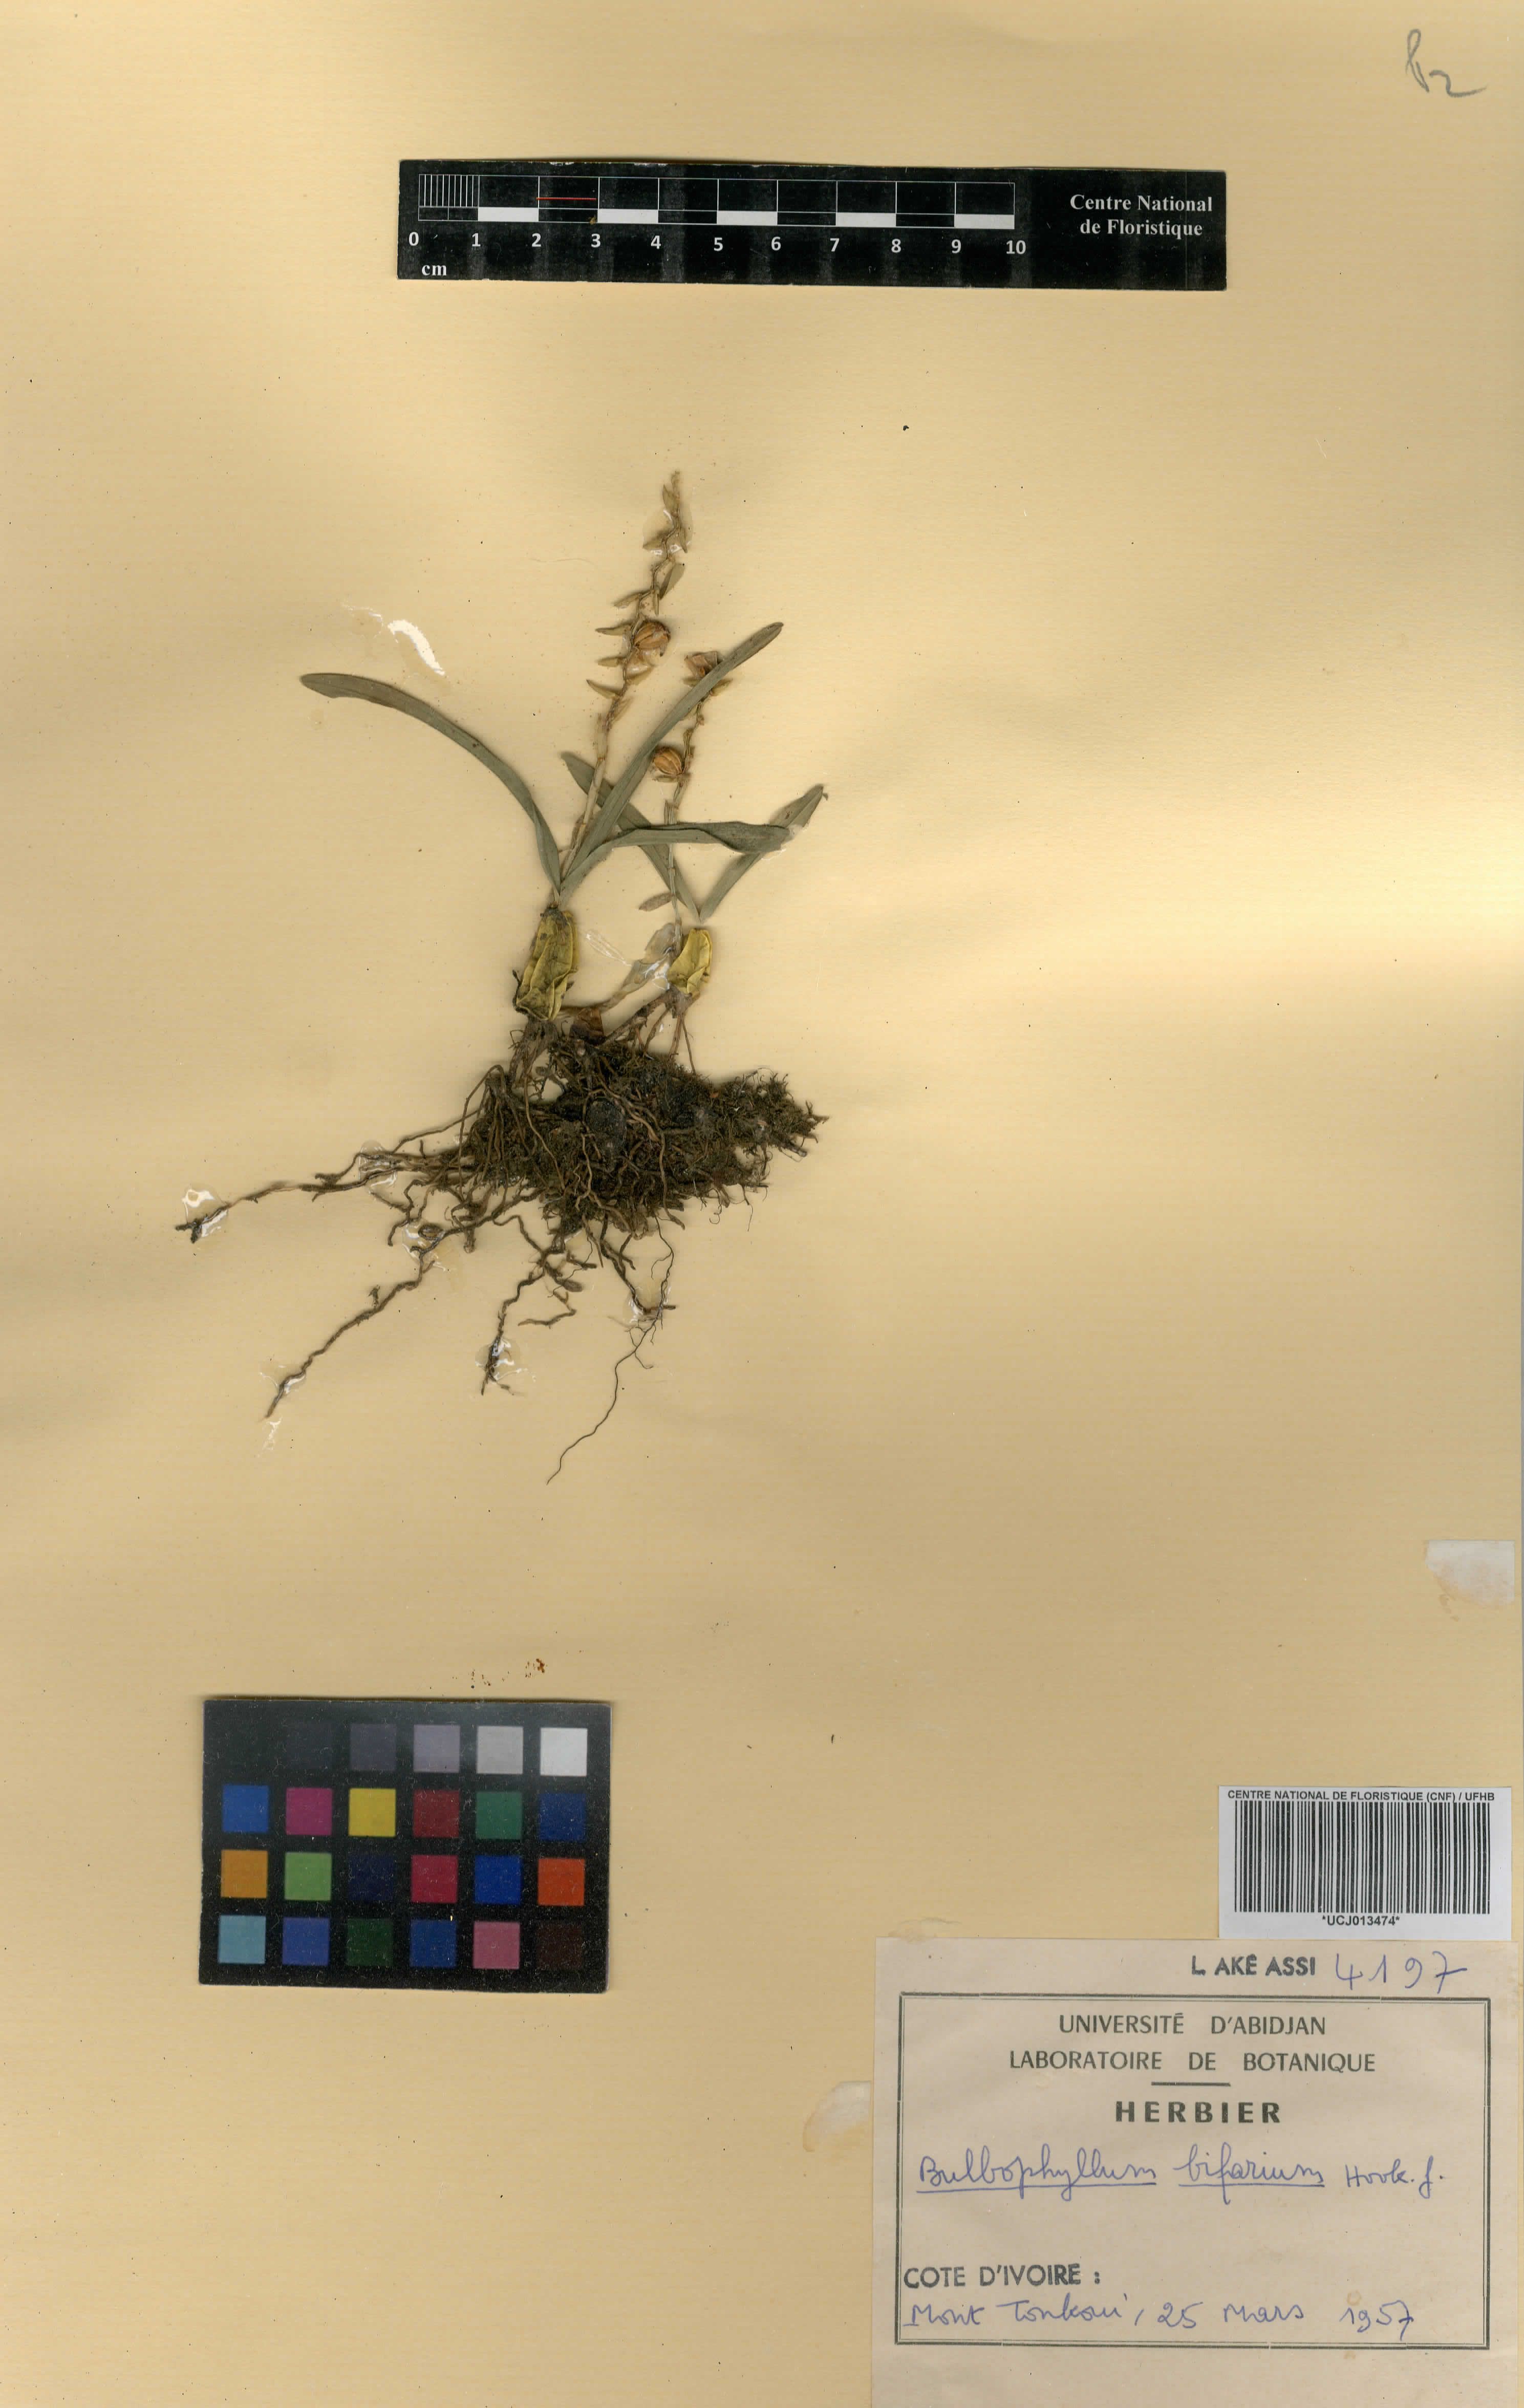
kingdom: Plantae
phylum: Tracheophyta
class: Liliopsida
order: Asparagales
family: Orchidaceae
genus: Bulbophyllum
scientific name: Bulbophyllum bifarium
